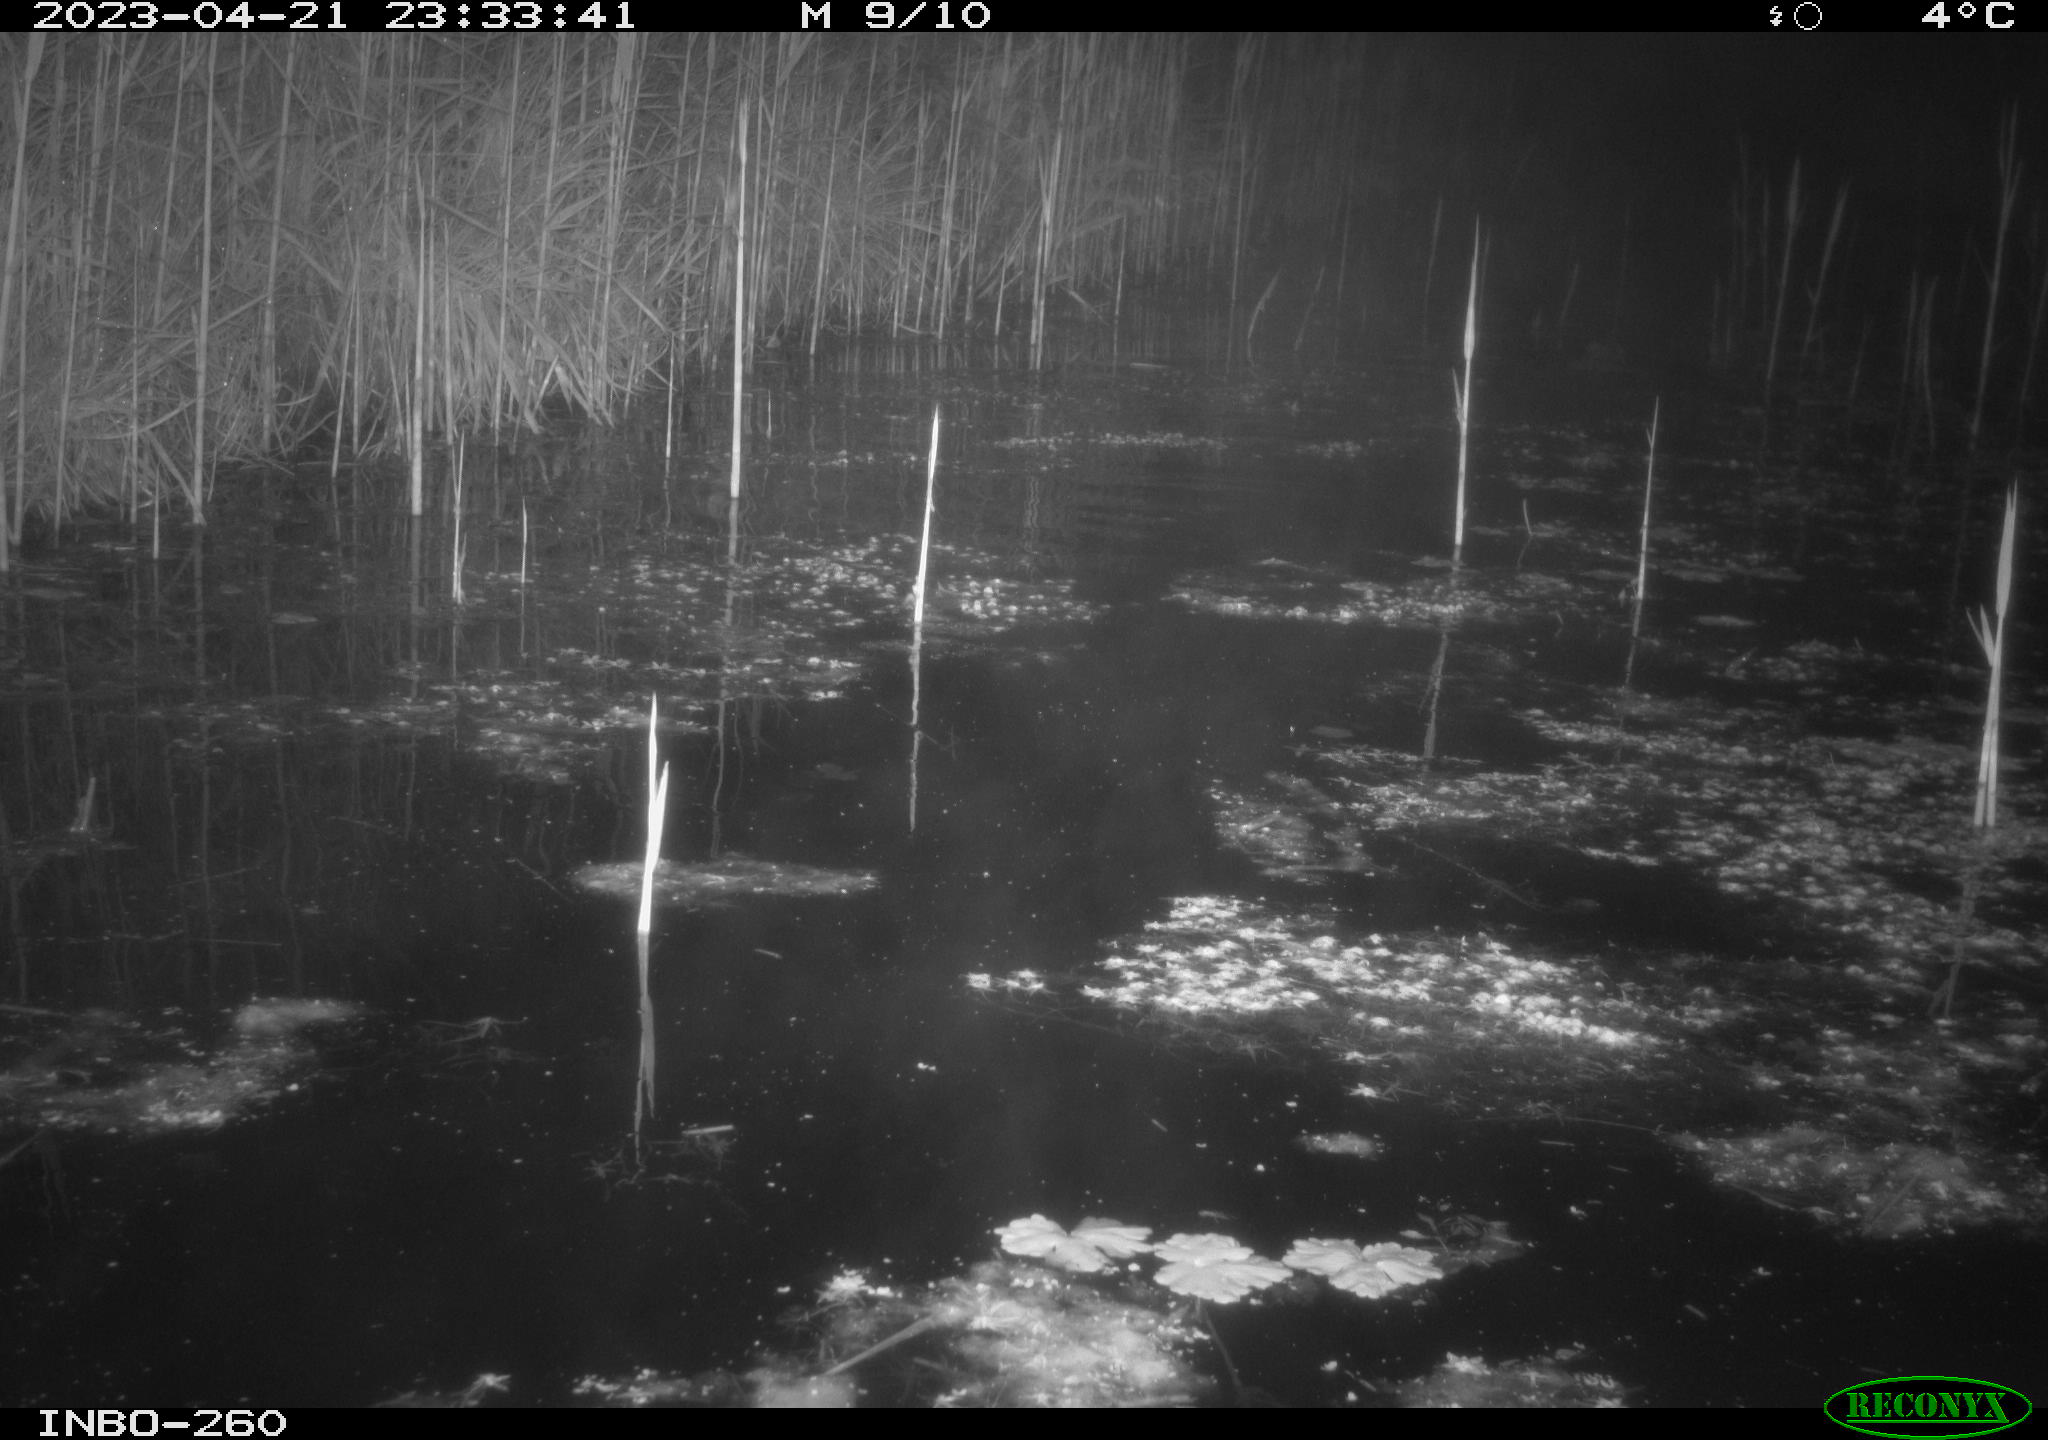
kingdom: Animalia
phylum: Chordata
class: Mammalia
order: Rodentia
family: Cricetidae
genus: Ondatra
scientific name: Ondatra zibethicus
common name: Muskrat
